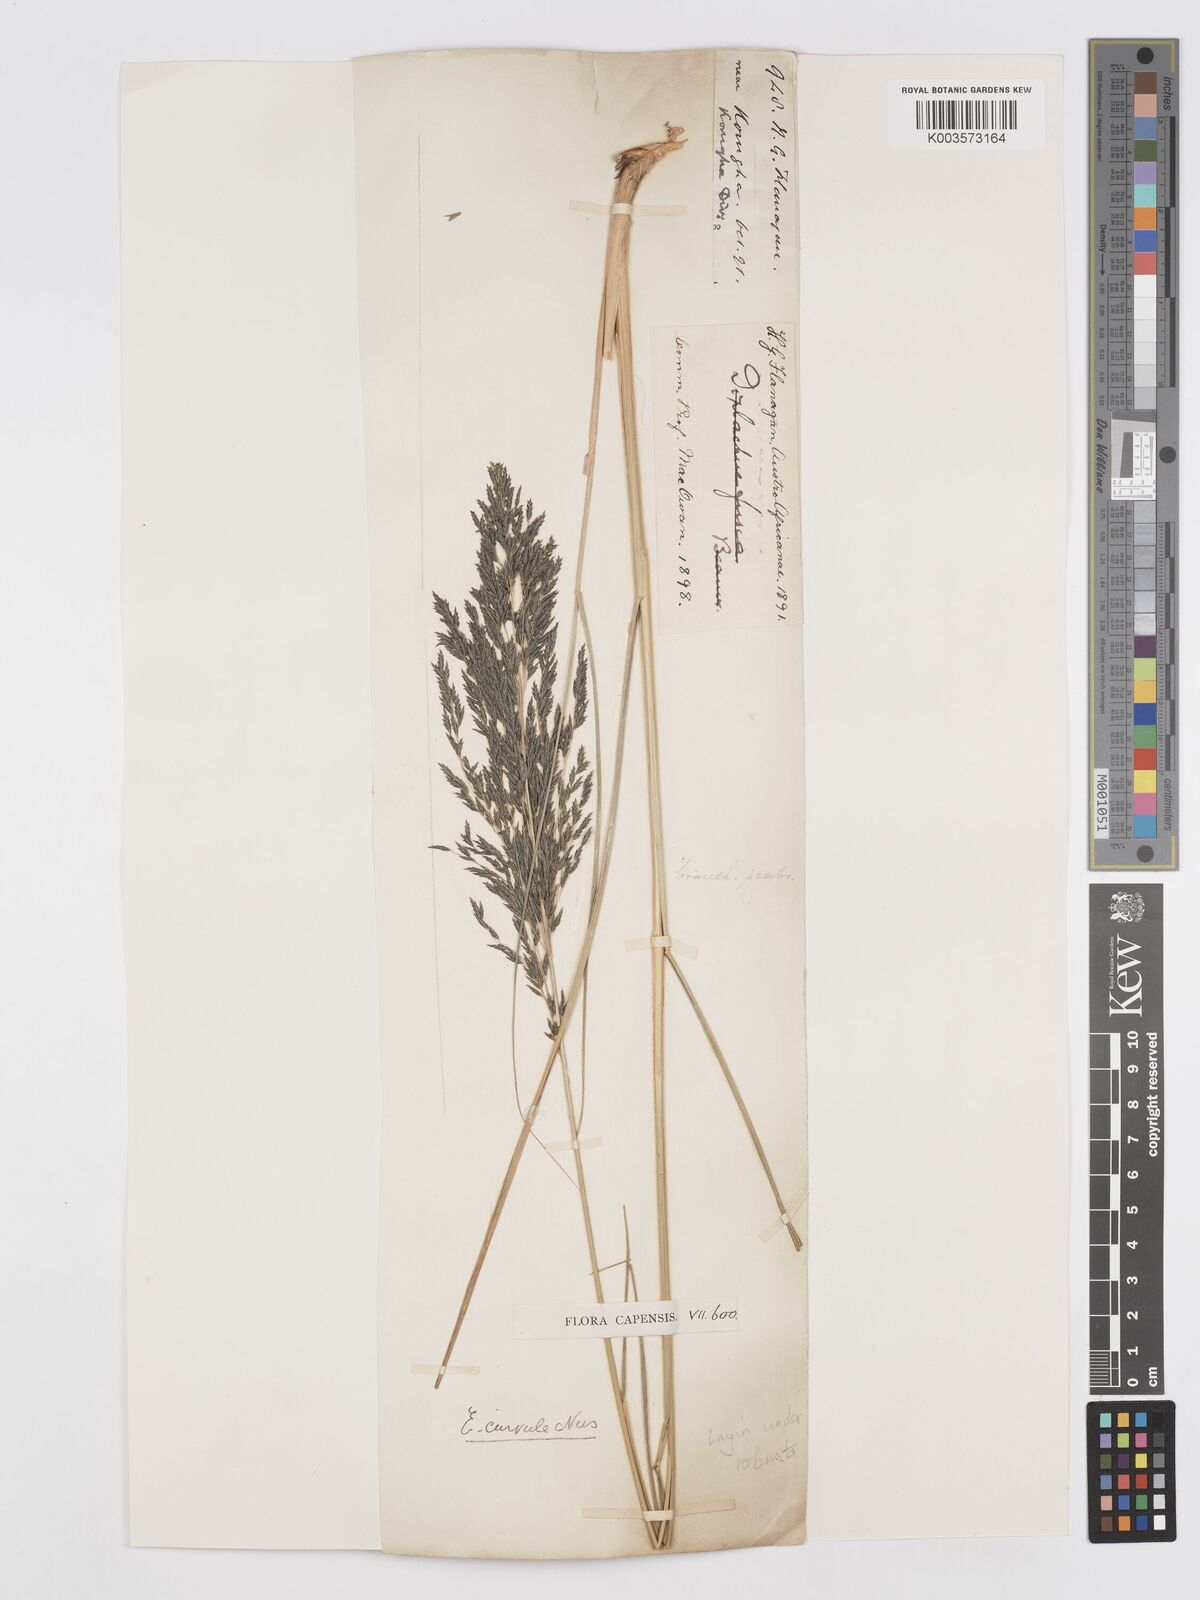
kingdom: Plantae
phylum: Tracheophyta
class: Liliopsida
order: Poales
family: Poaceae
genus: Eragrostis
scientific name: Eragrostis curvula
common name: African love-grass
